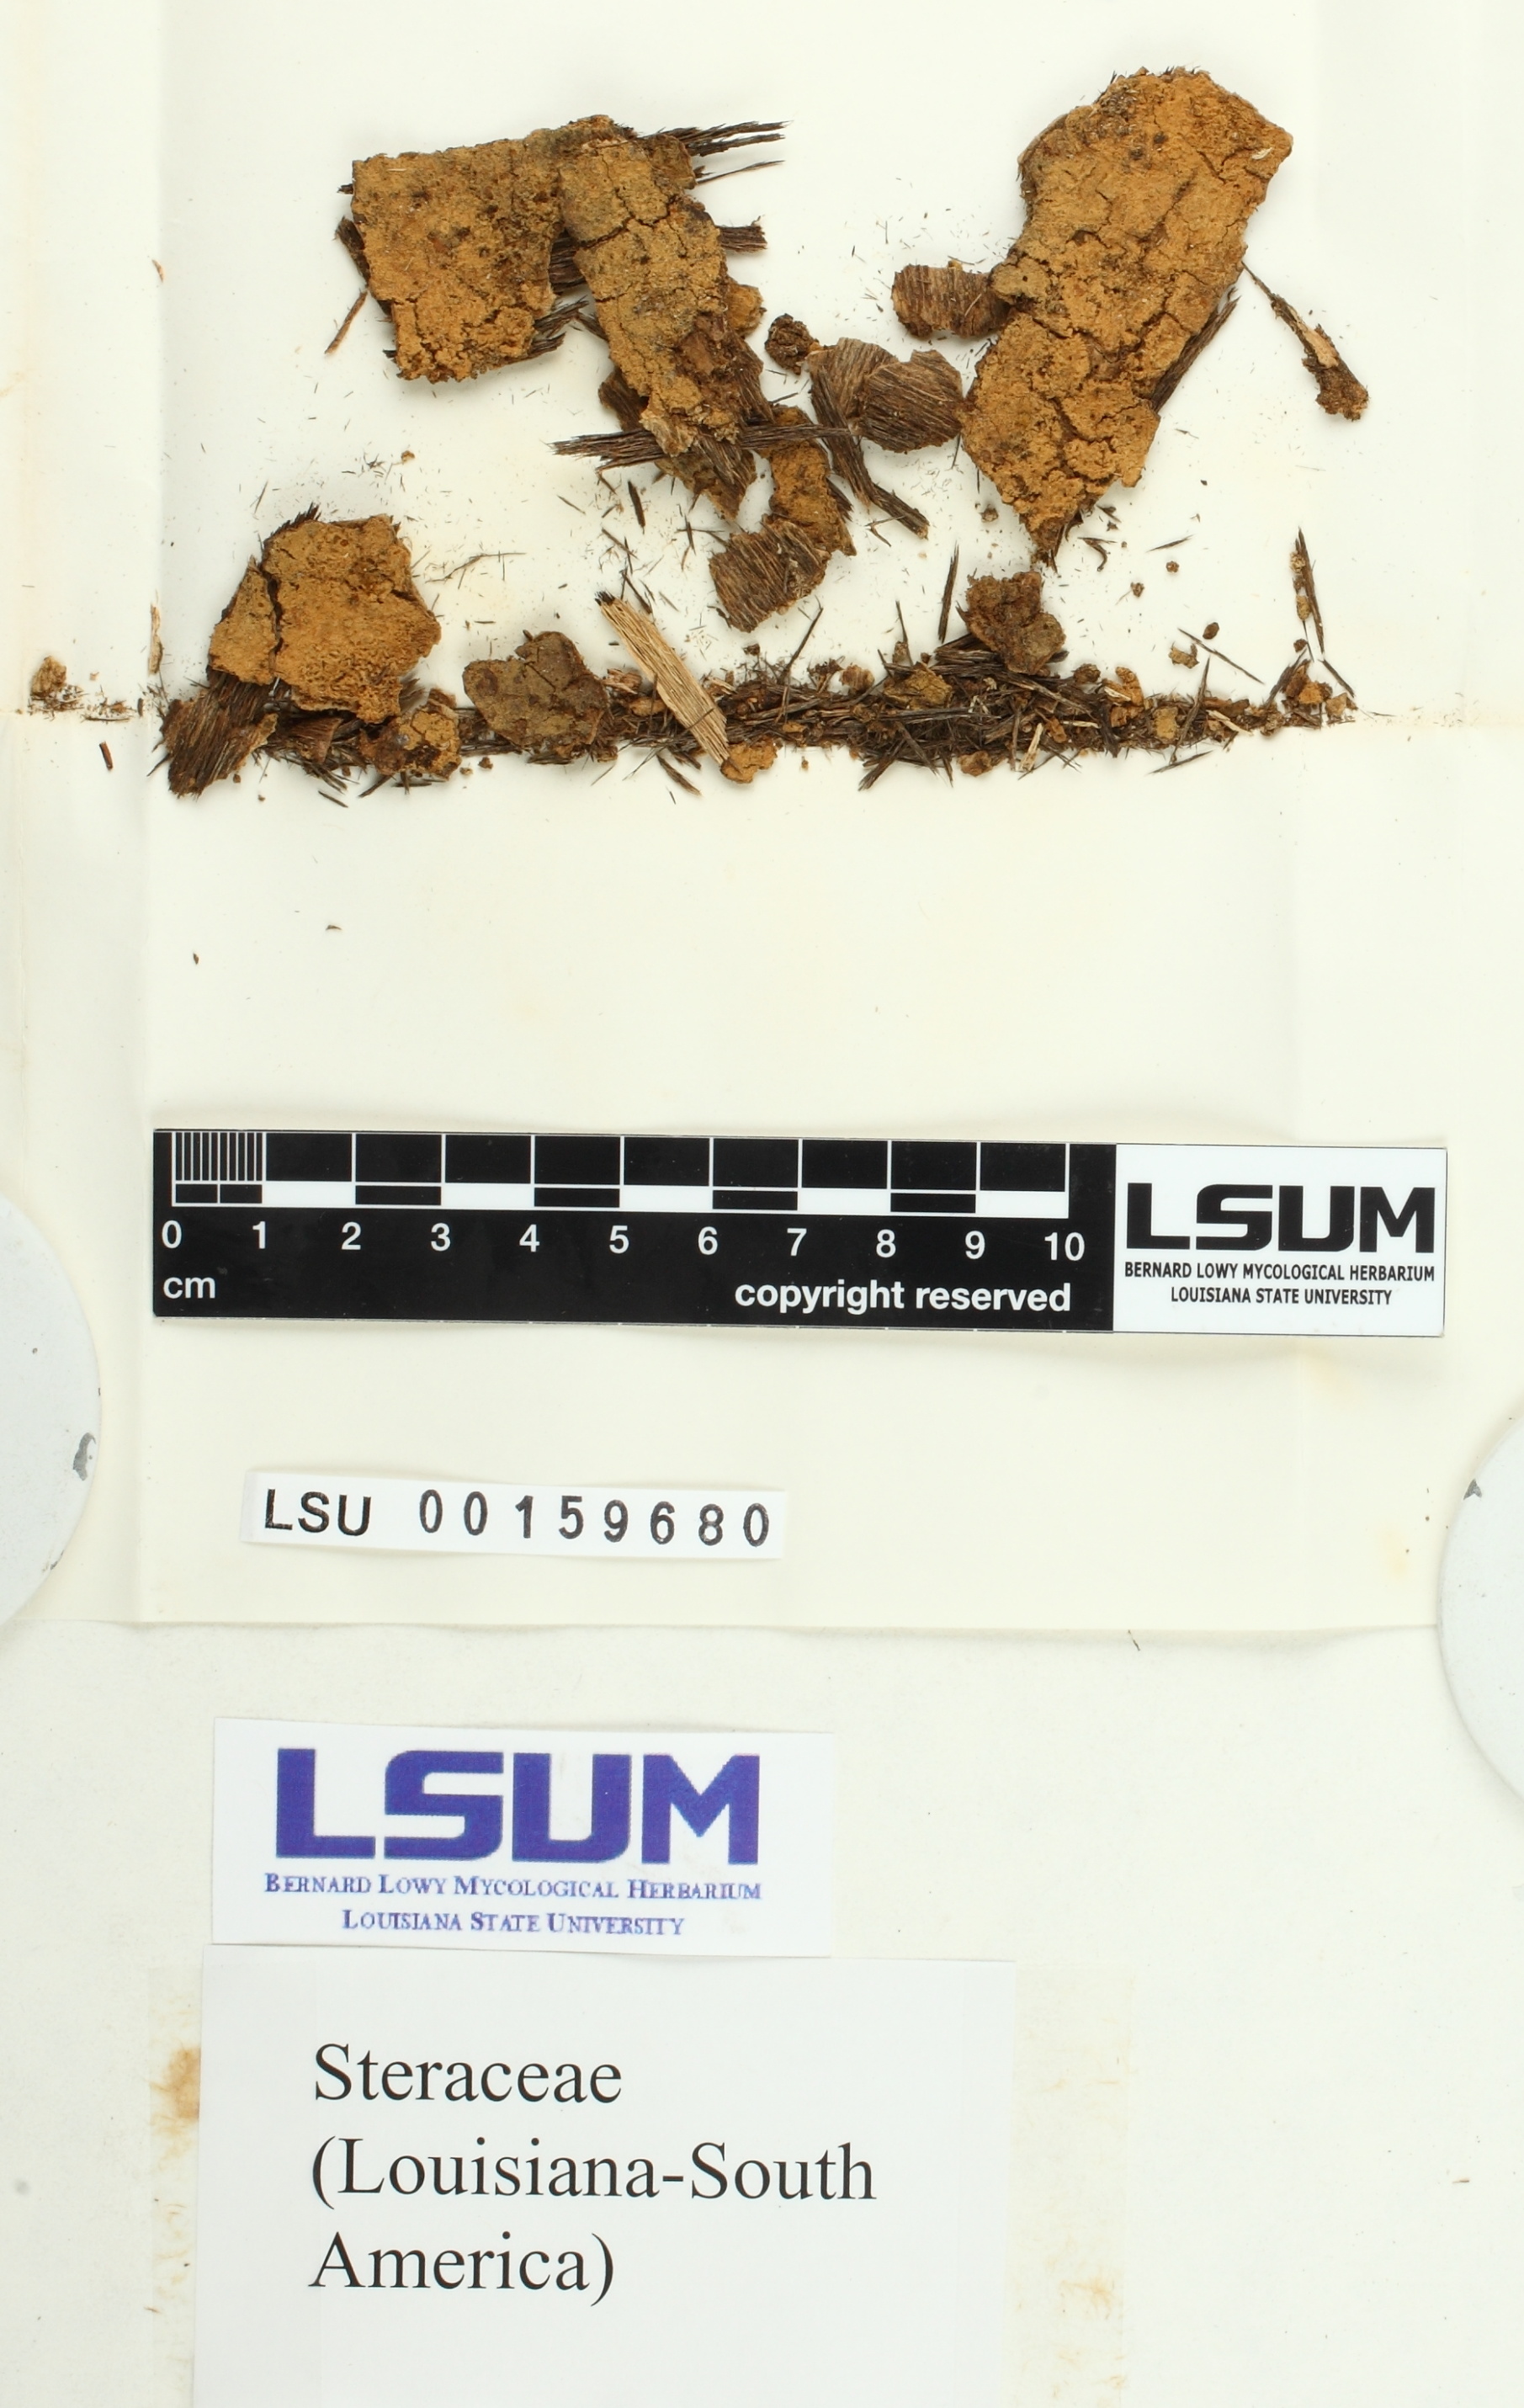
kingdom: Fungi
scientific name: Fungi
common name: Fungi
